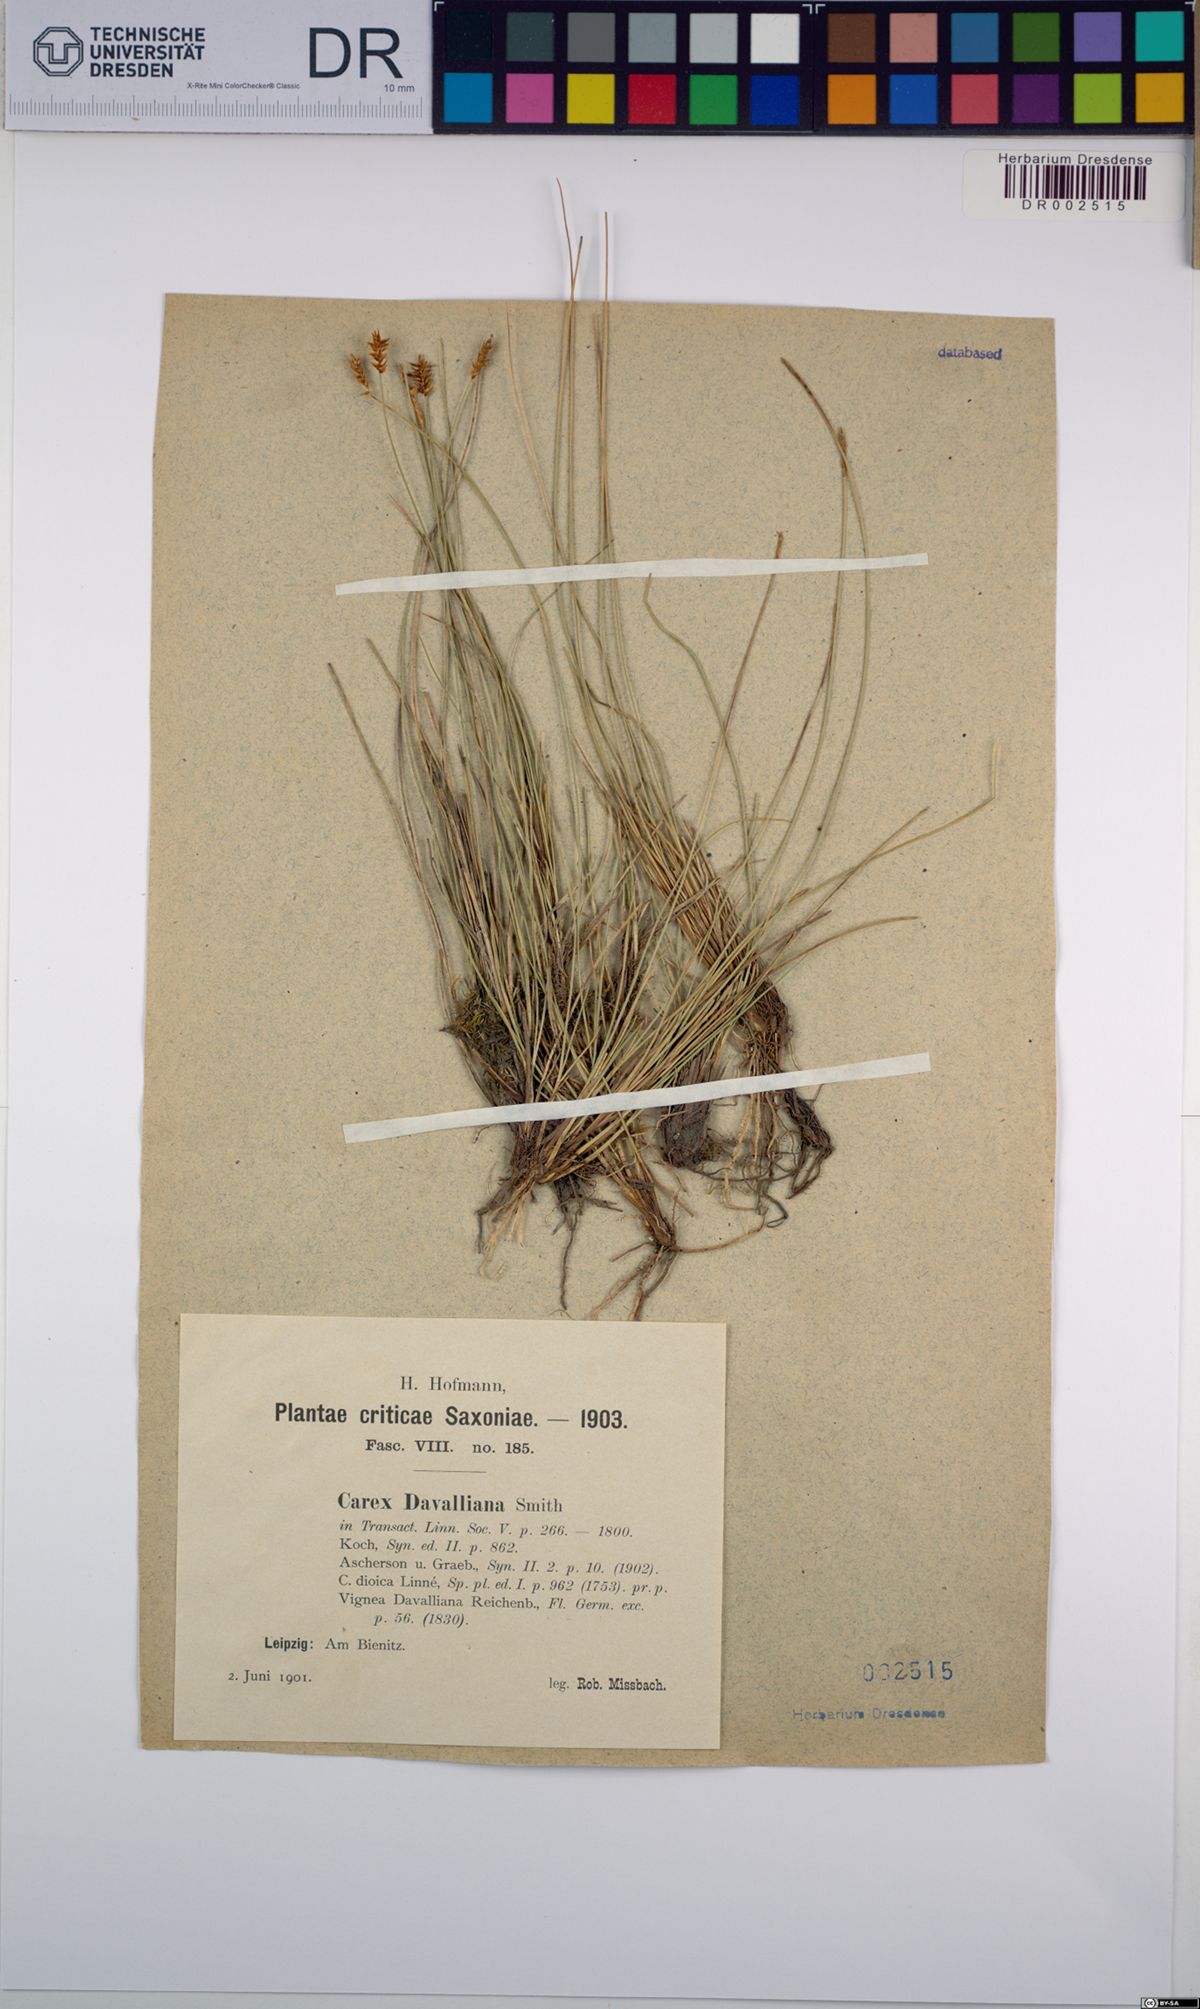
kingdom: Plantae
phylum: Tracheophyta
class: Liliopsida
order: Poales
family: Cyperaceae
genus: Carex
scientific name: Carex davalliana
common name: Davall's sedge
